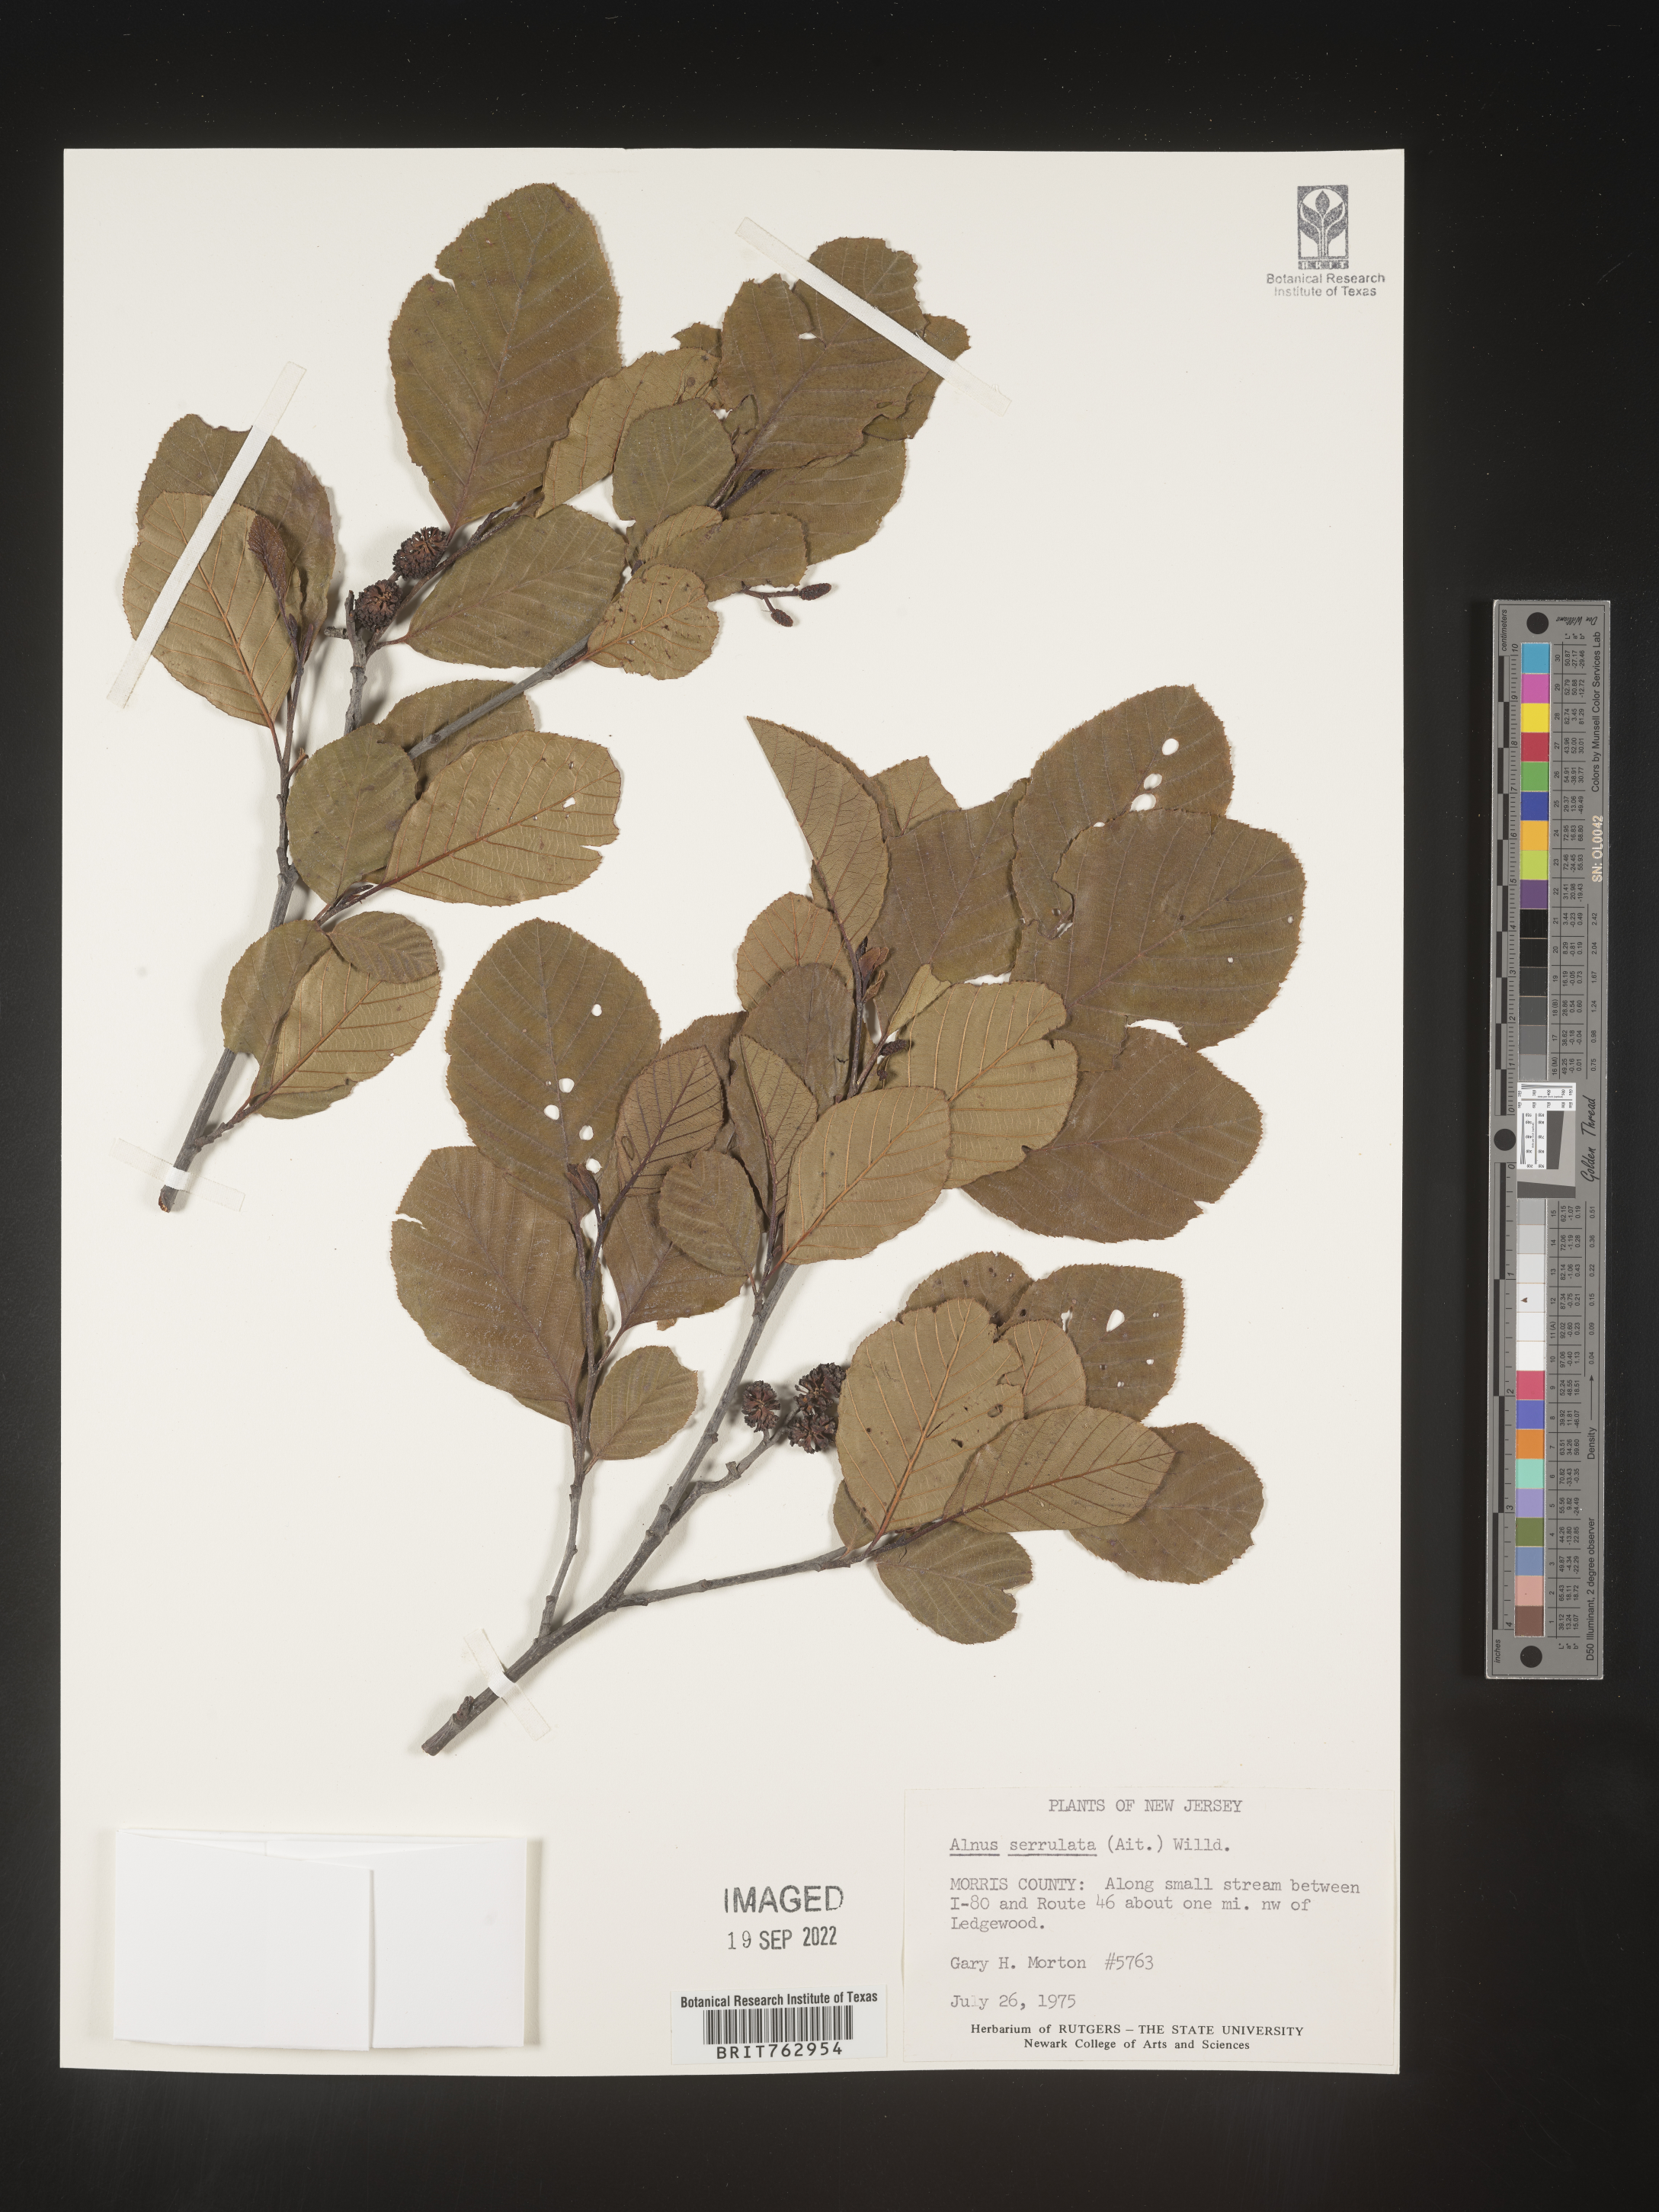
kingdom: Plantae
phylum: Tracheophyta
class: Magnoliopsida
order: Fagales
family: Betulaceae
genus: Alnus
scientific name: Alnus serrulata
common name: Hazel alder
